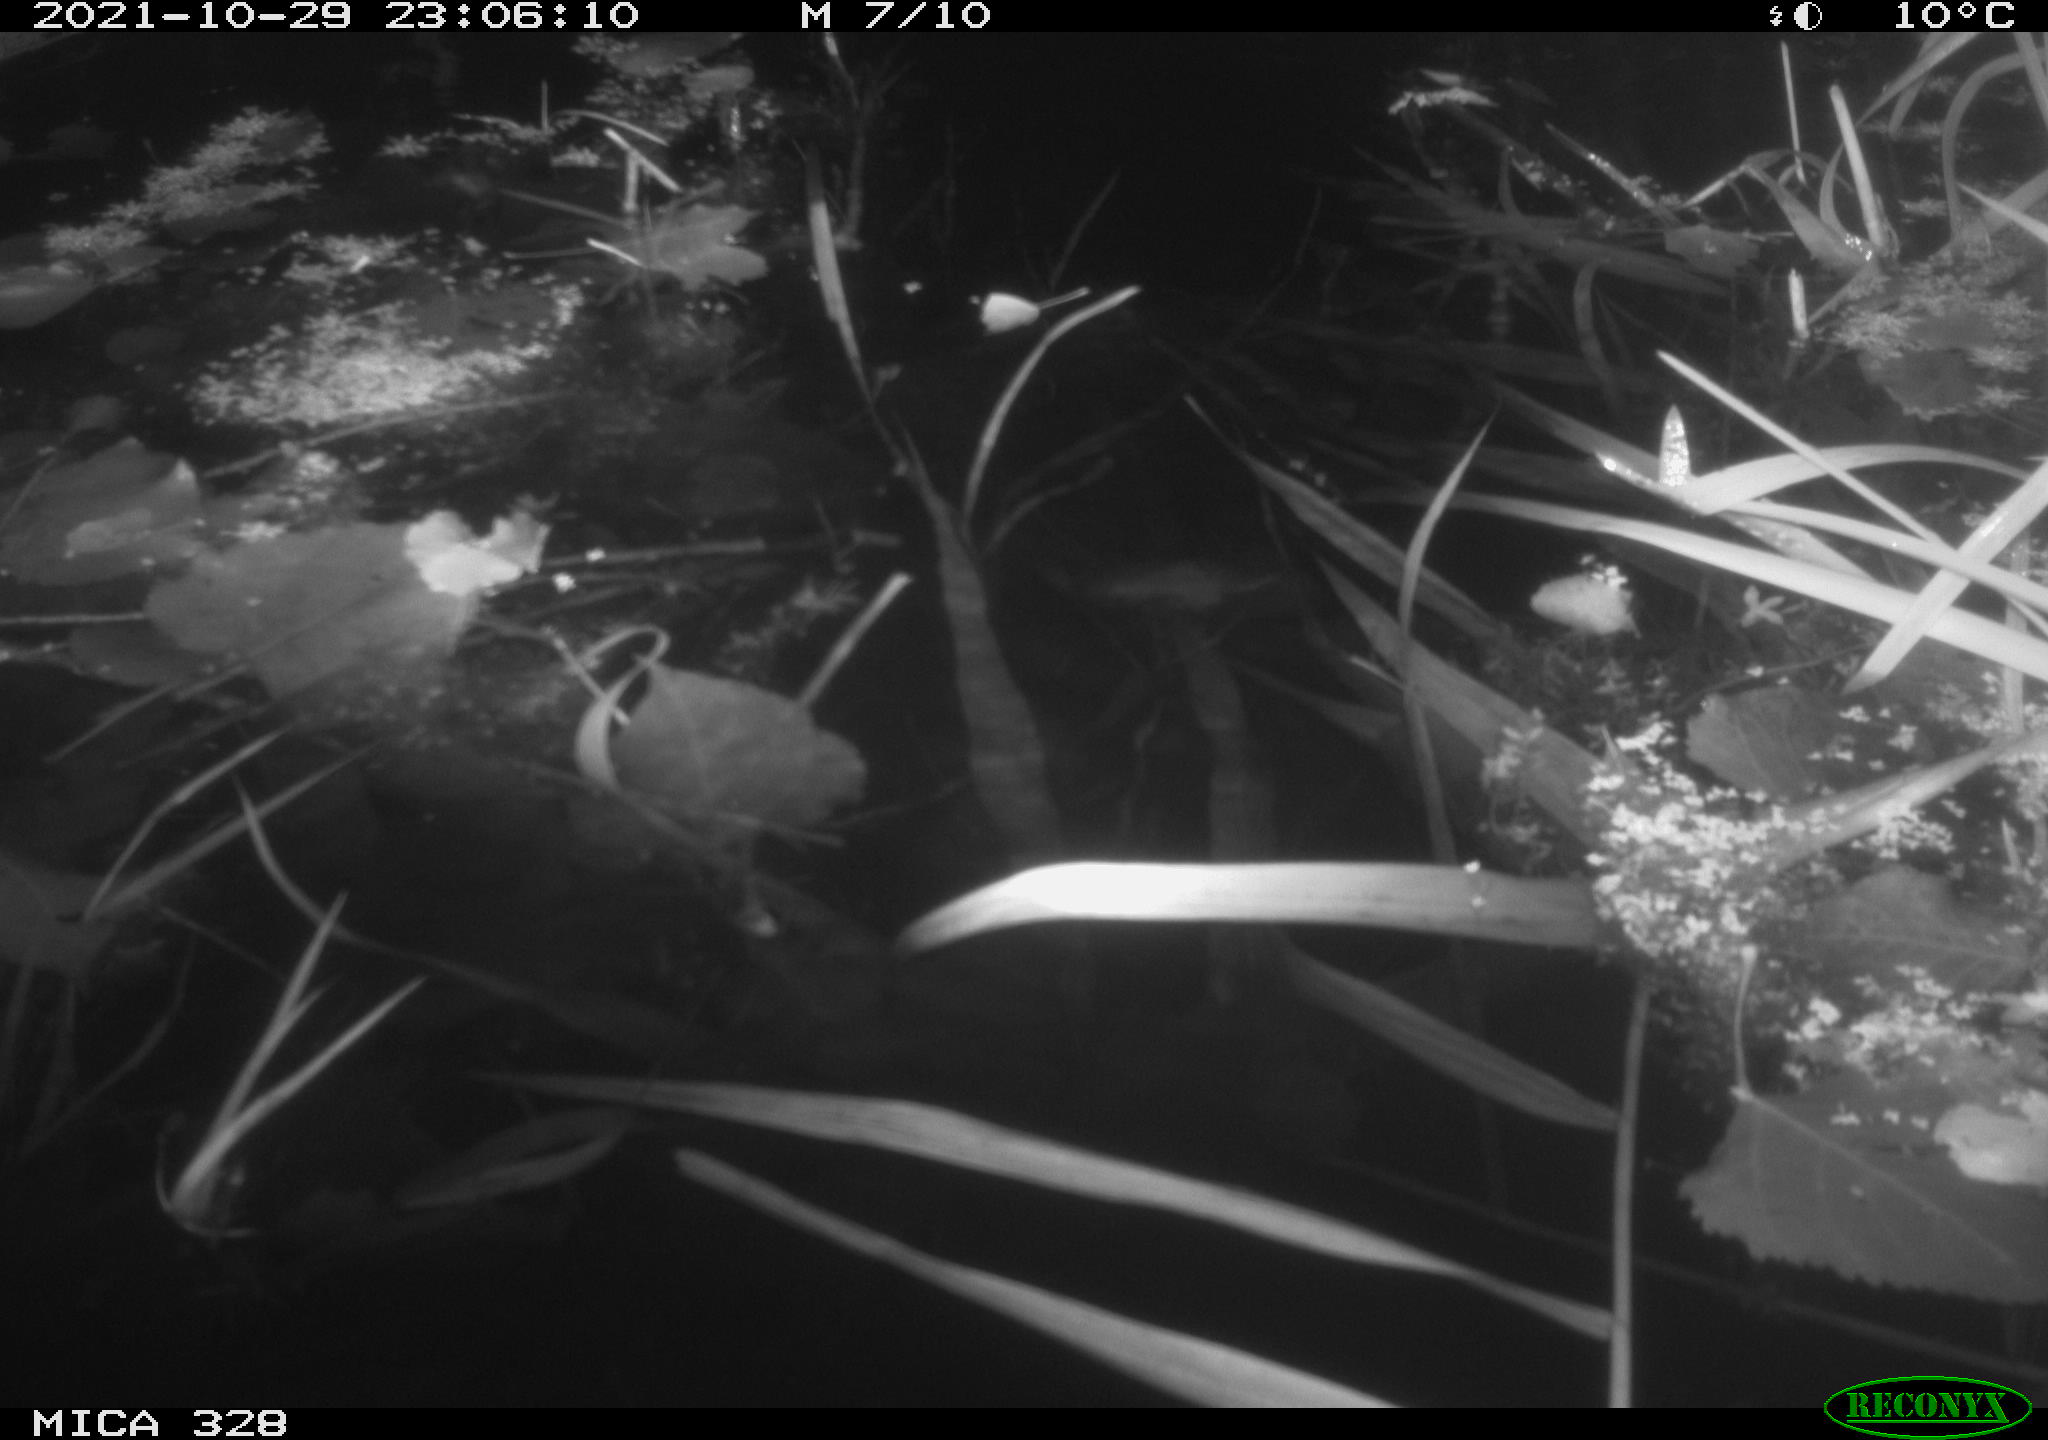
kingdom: Animalia
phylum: Chordata
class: Mammalia
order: Rodentia
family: Cricetidae
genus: Ondatra
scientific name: Ondatra zibethicus
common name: Muskrat
